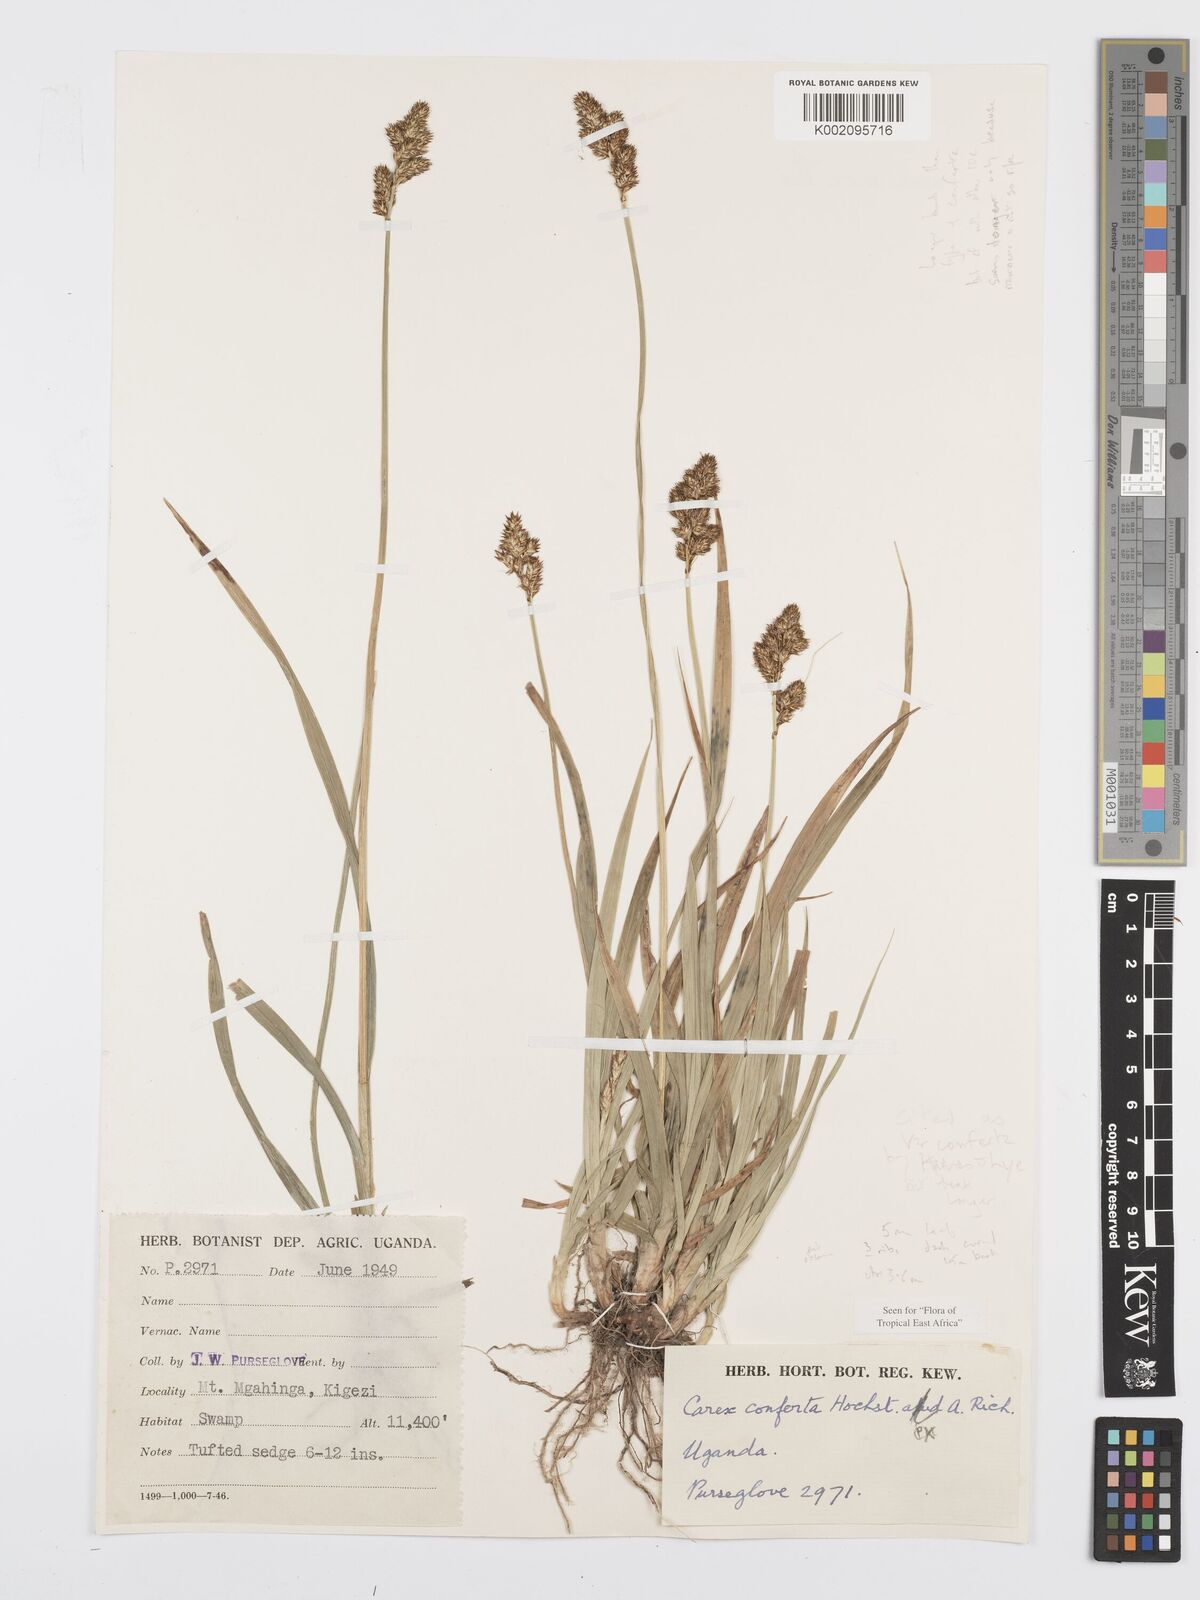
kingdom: Plantae
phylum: Tracheophyta
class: Liliopsida
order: Poales
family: Cyperaceae
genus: Carex
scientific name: Carex conferta
